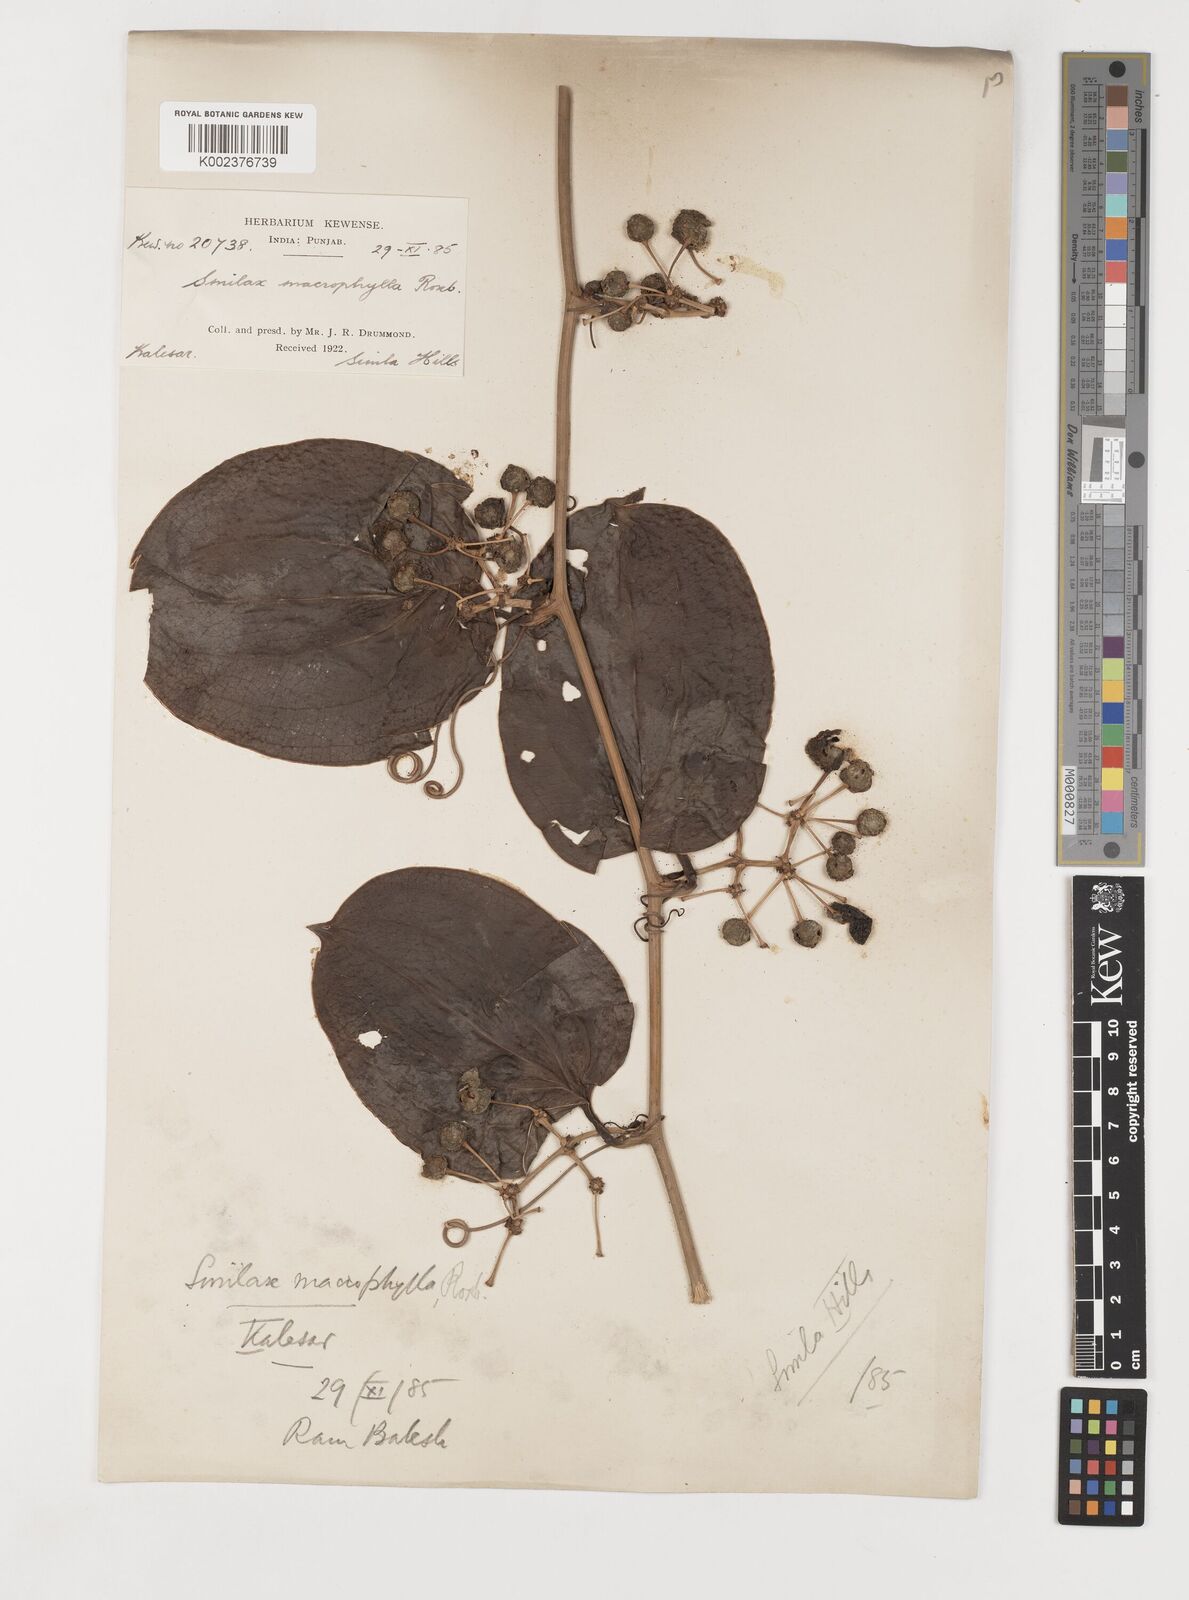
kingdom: Plantae
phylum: Tracheophyta
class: Liliopsida
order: Liliales
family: Smilacaceae
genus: Smilax
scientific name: Smilax ovalifolia
